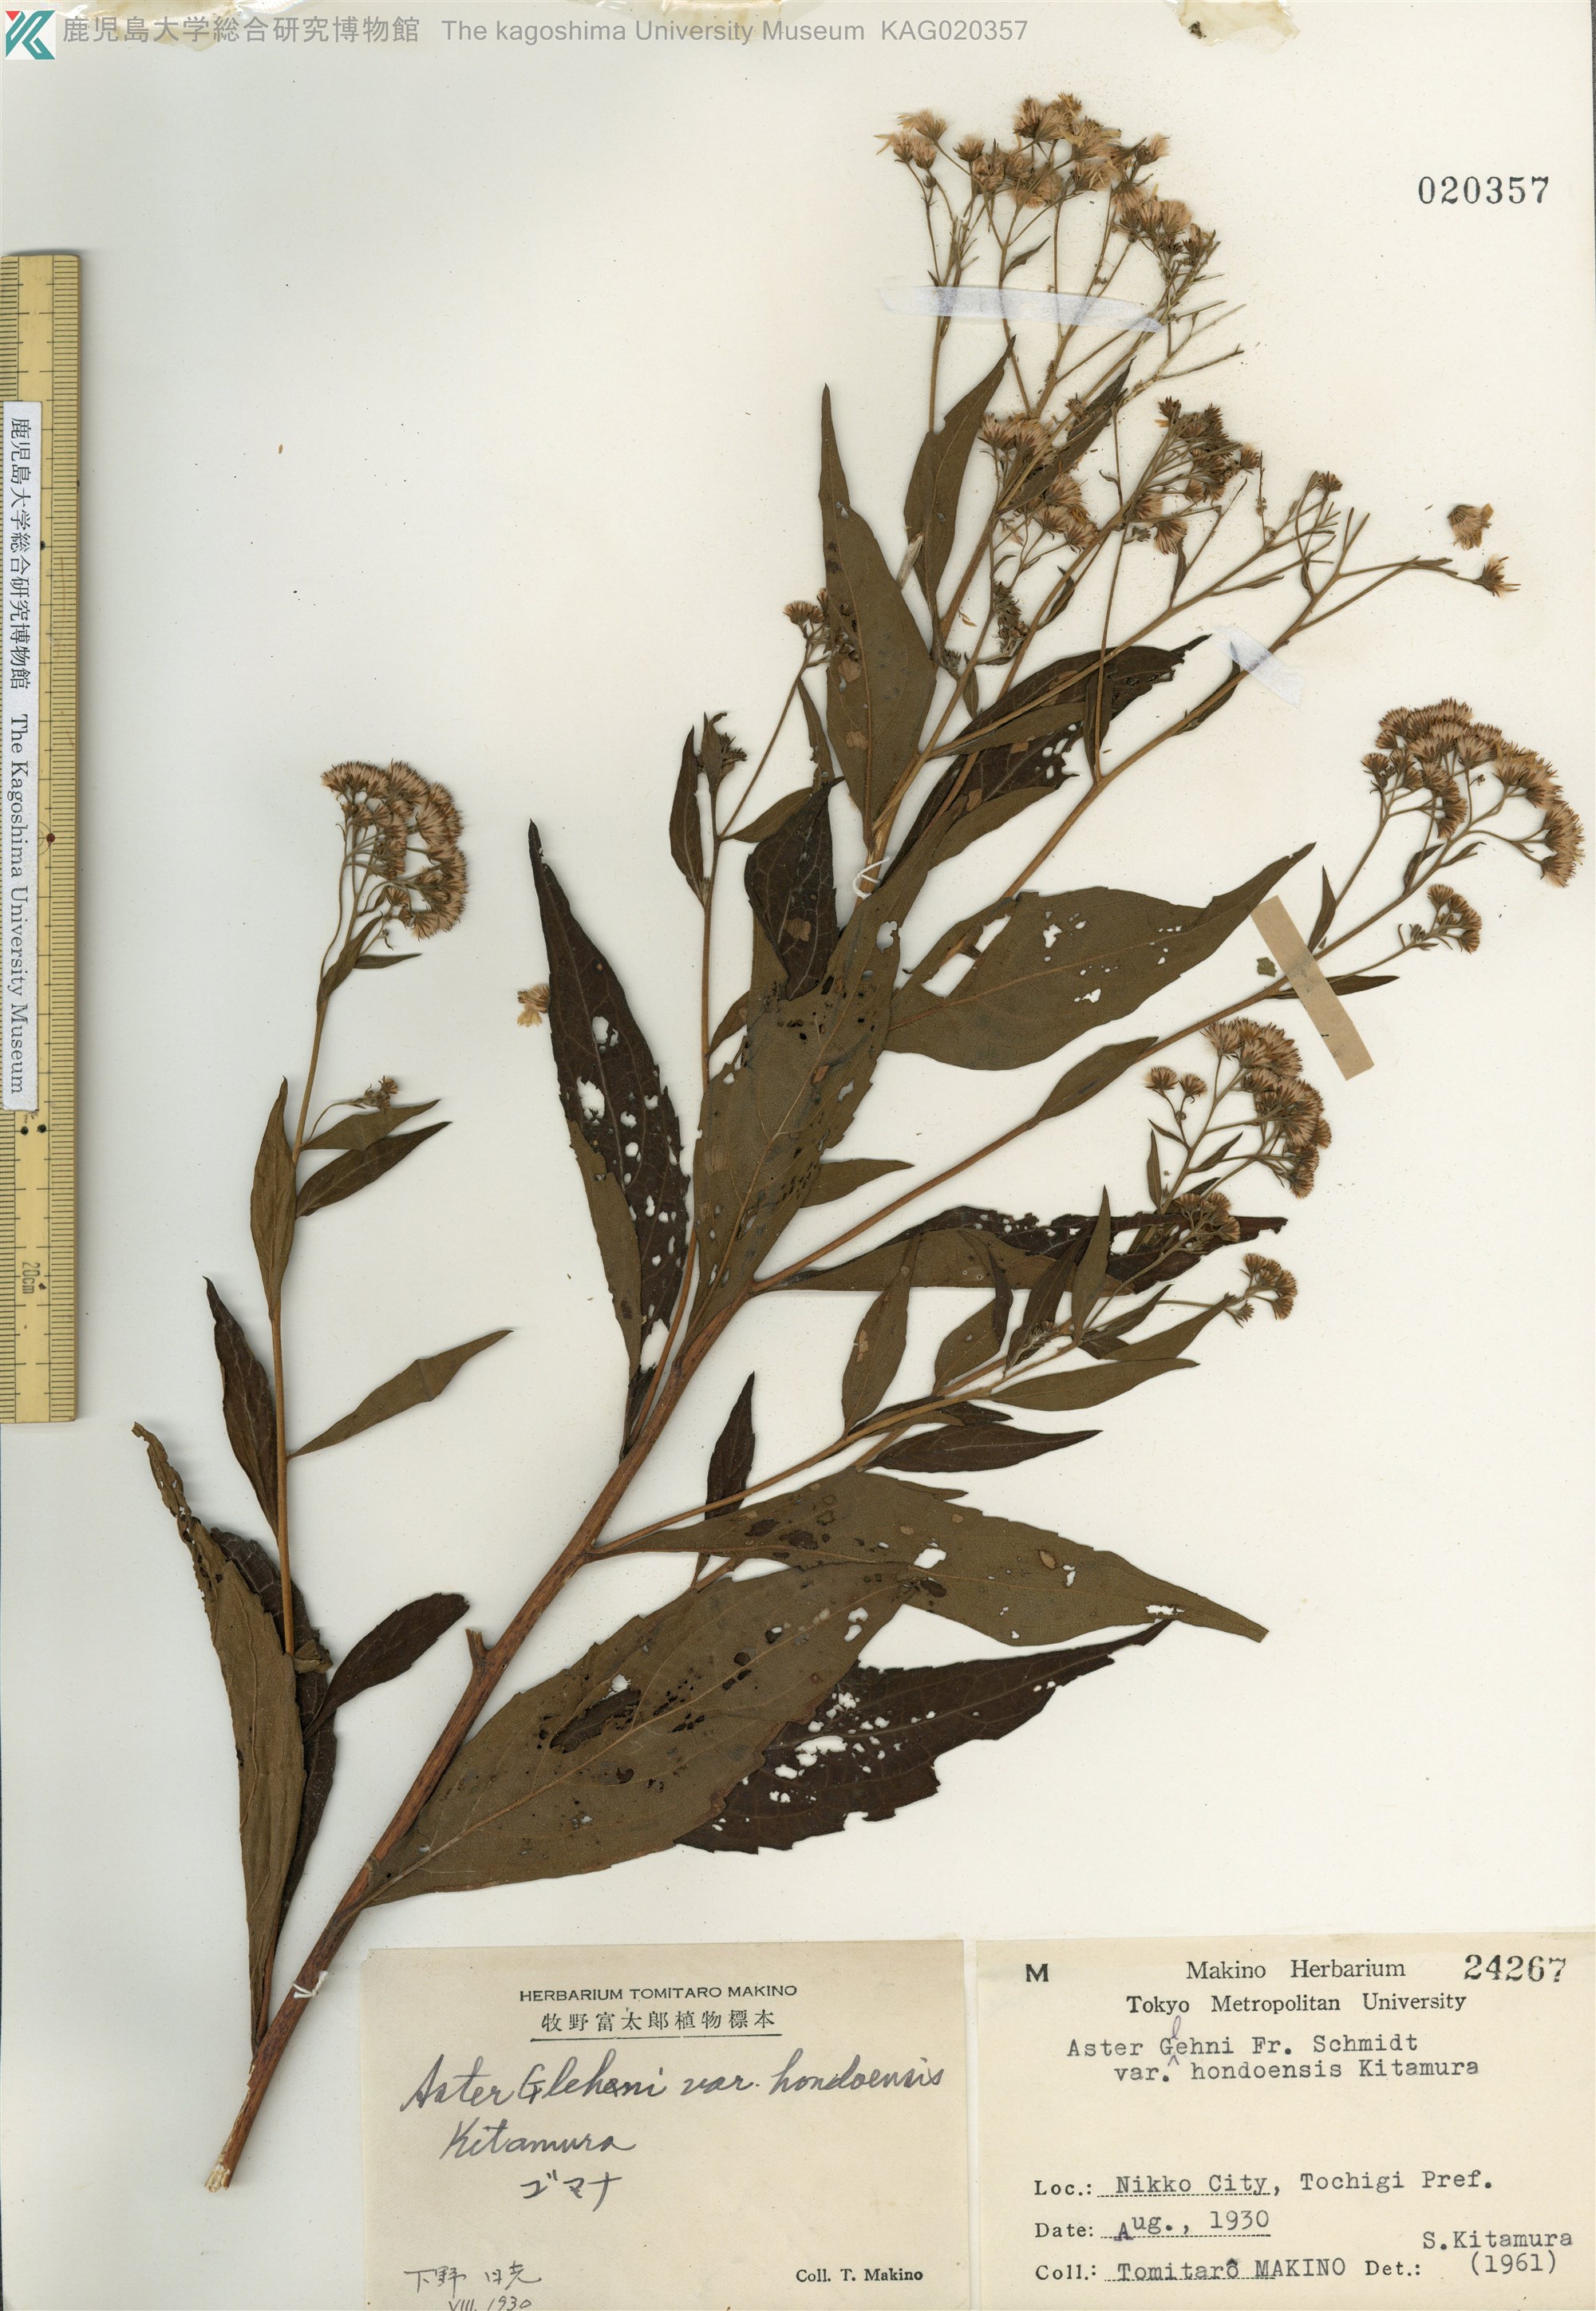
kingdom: Plantae
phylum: Tracheophyta
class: Magnoliopsida
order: Asterales
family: Asteraceae
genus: Kitamuria
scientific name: Kitamuria glehnii
